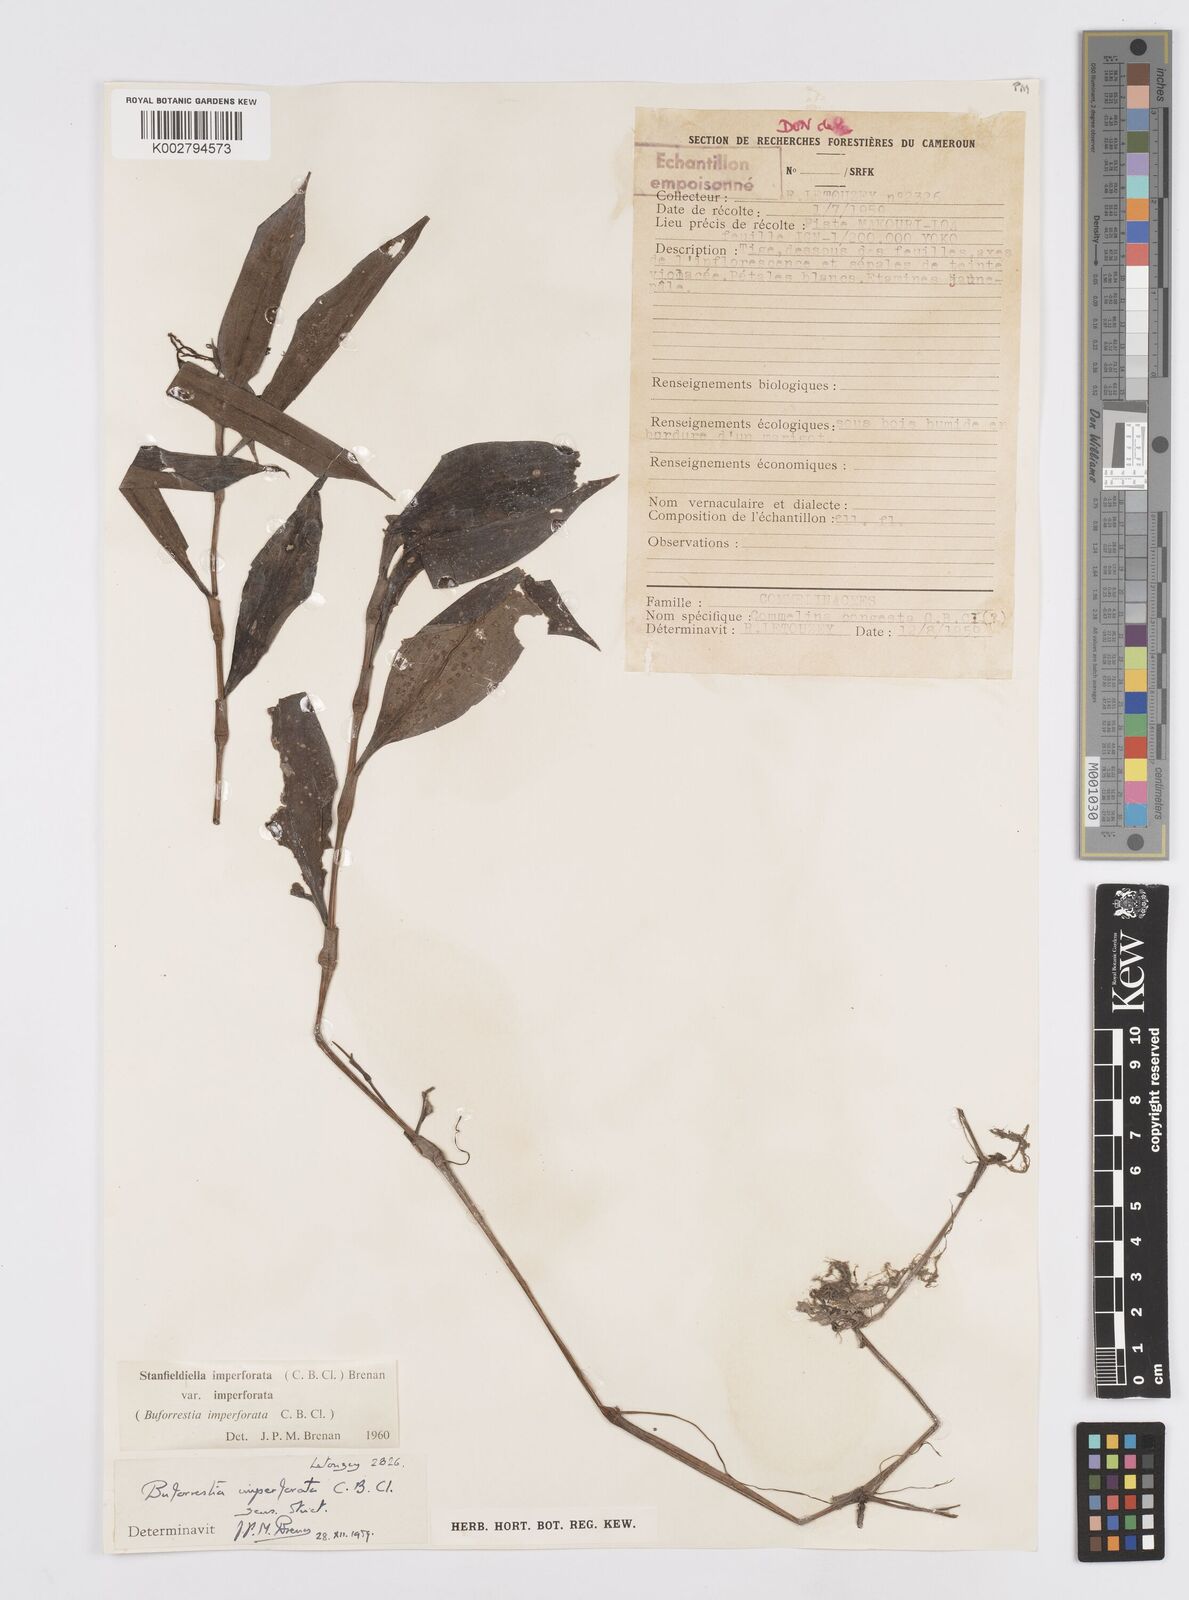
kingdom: Plantae
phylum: Tracheophyta
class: Liliopsida
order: Commelinales
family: Commelinaceae
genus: Stanfieldiella
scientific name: Stanfieldiella imperforata
